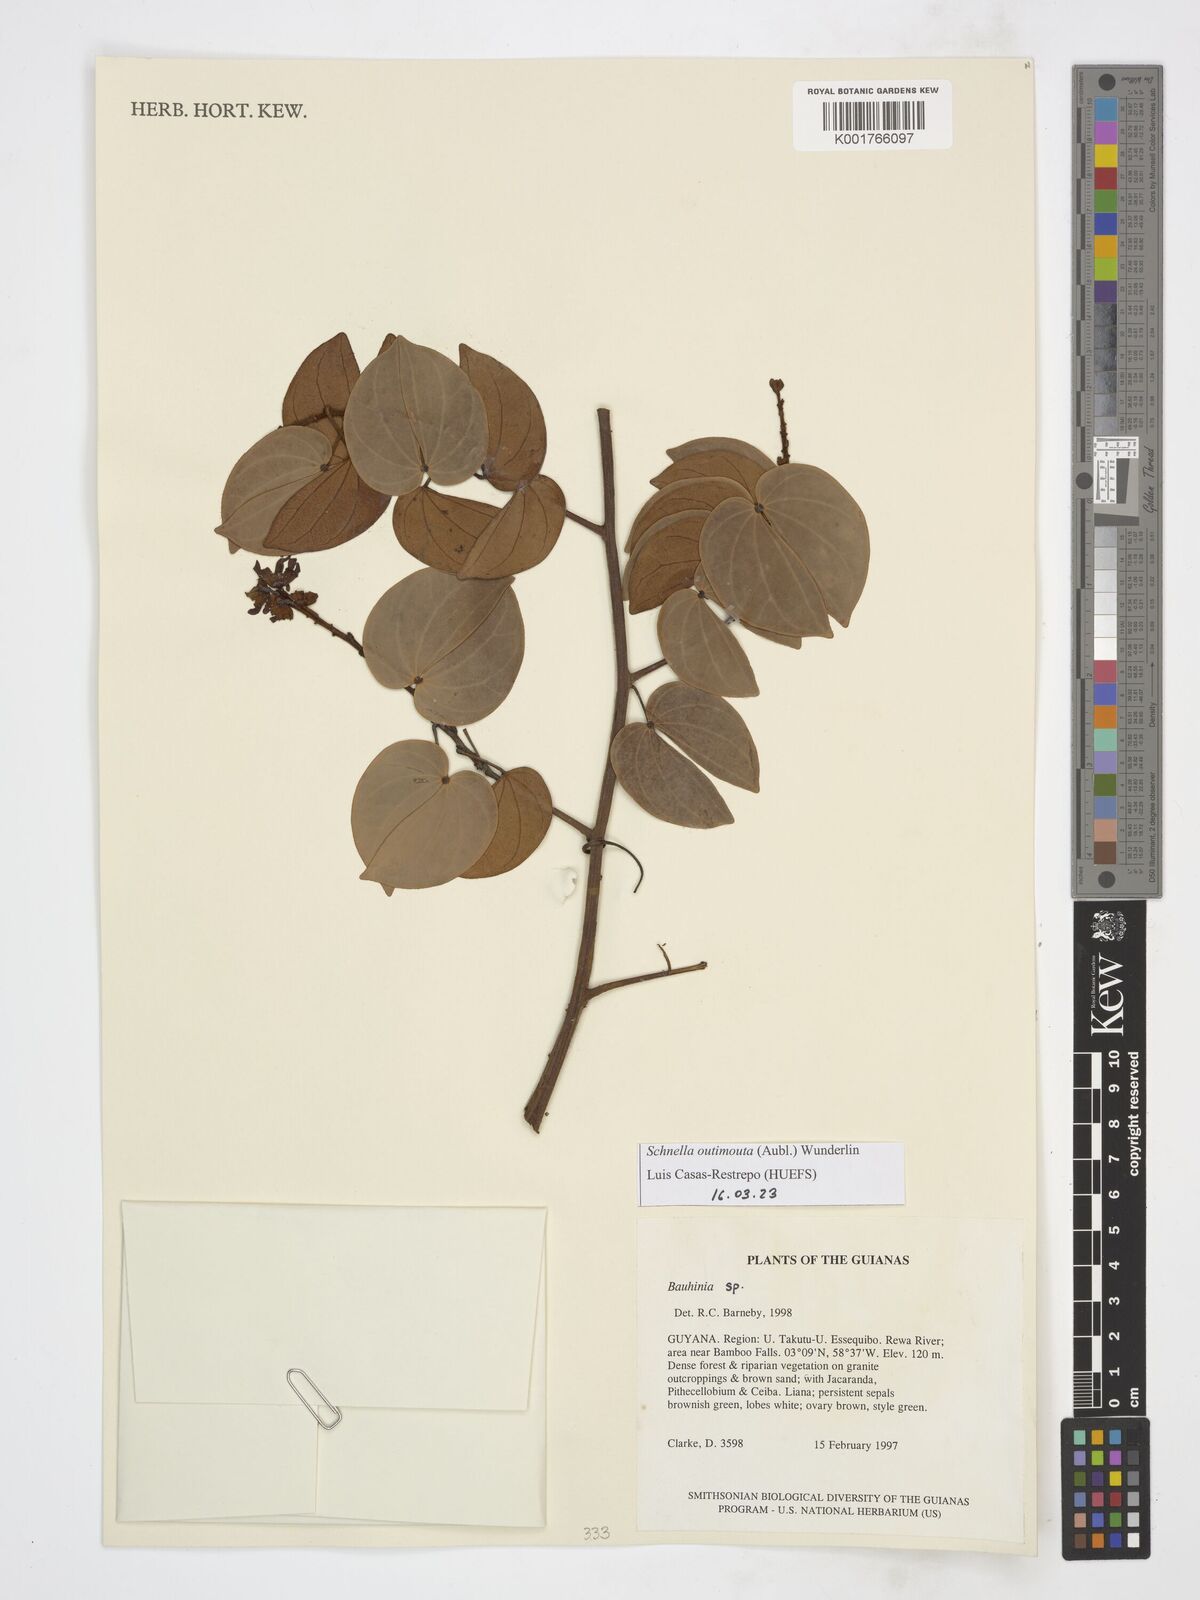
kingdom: Plantae
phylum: Tracheophyta
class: Magnoliopsida
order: Fabales
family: Fabaceae
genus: Schnella
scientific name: Schnella outimouta
